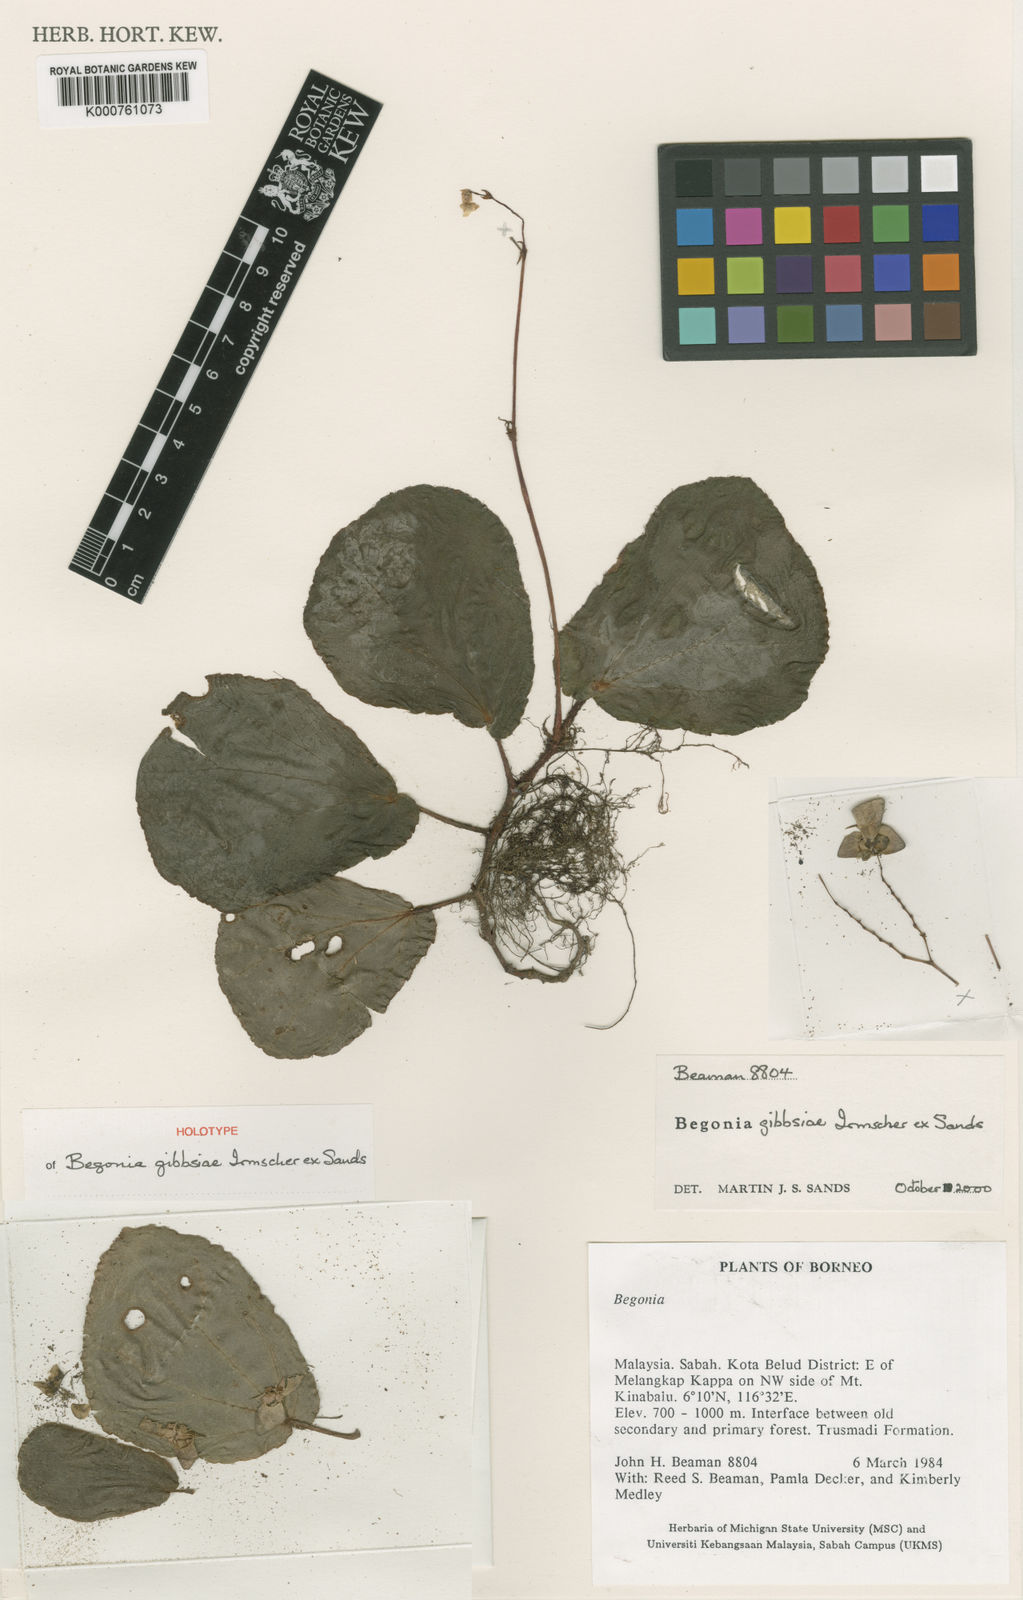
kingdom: Plantae
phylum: Tracheophyta
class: Magnoliopsida
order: Cucurbitales
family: Begoniaceae
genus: Begonia
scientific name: Begonia gibbsiae
